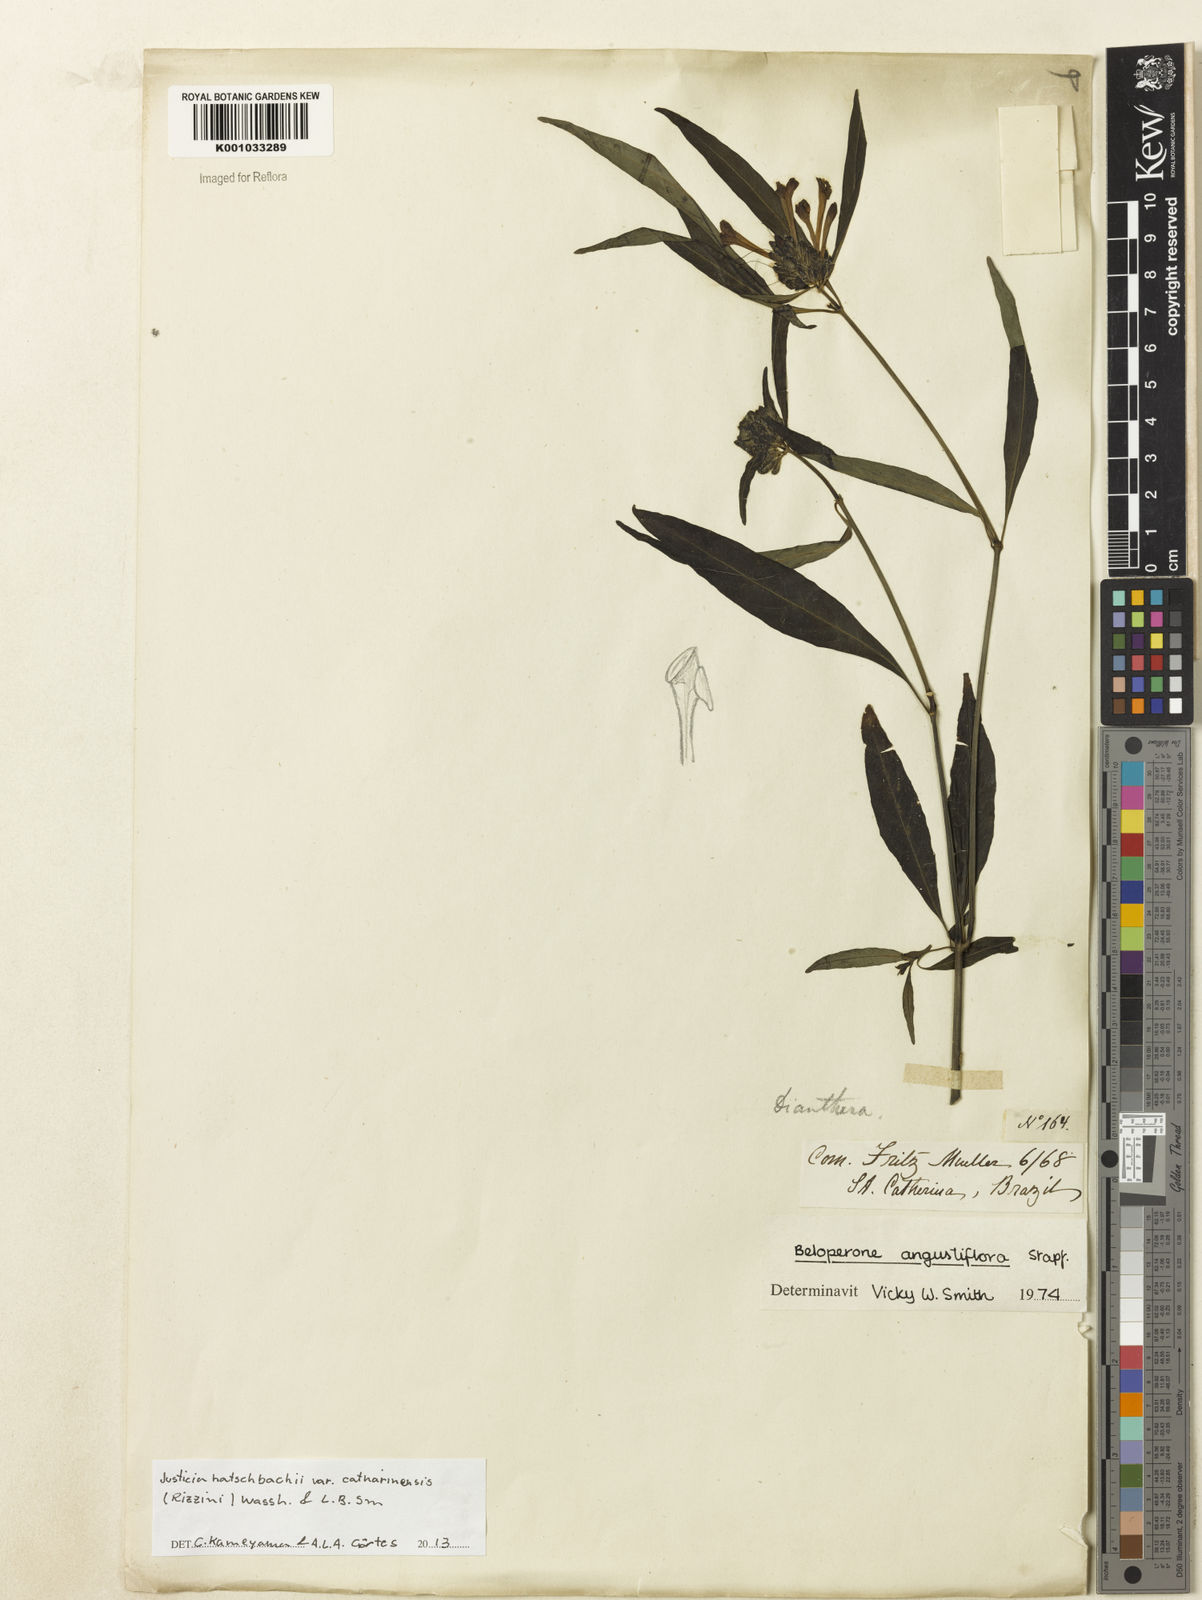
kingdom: Plantae
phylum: Tracheophyta
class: Magnoliopsida
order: Lamiales
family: Acanthaceae
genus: Justicia
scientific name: Justicia hatschbachii
